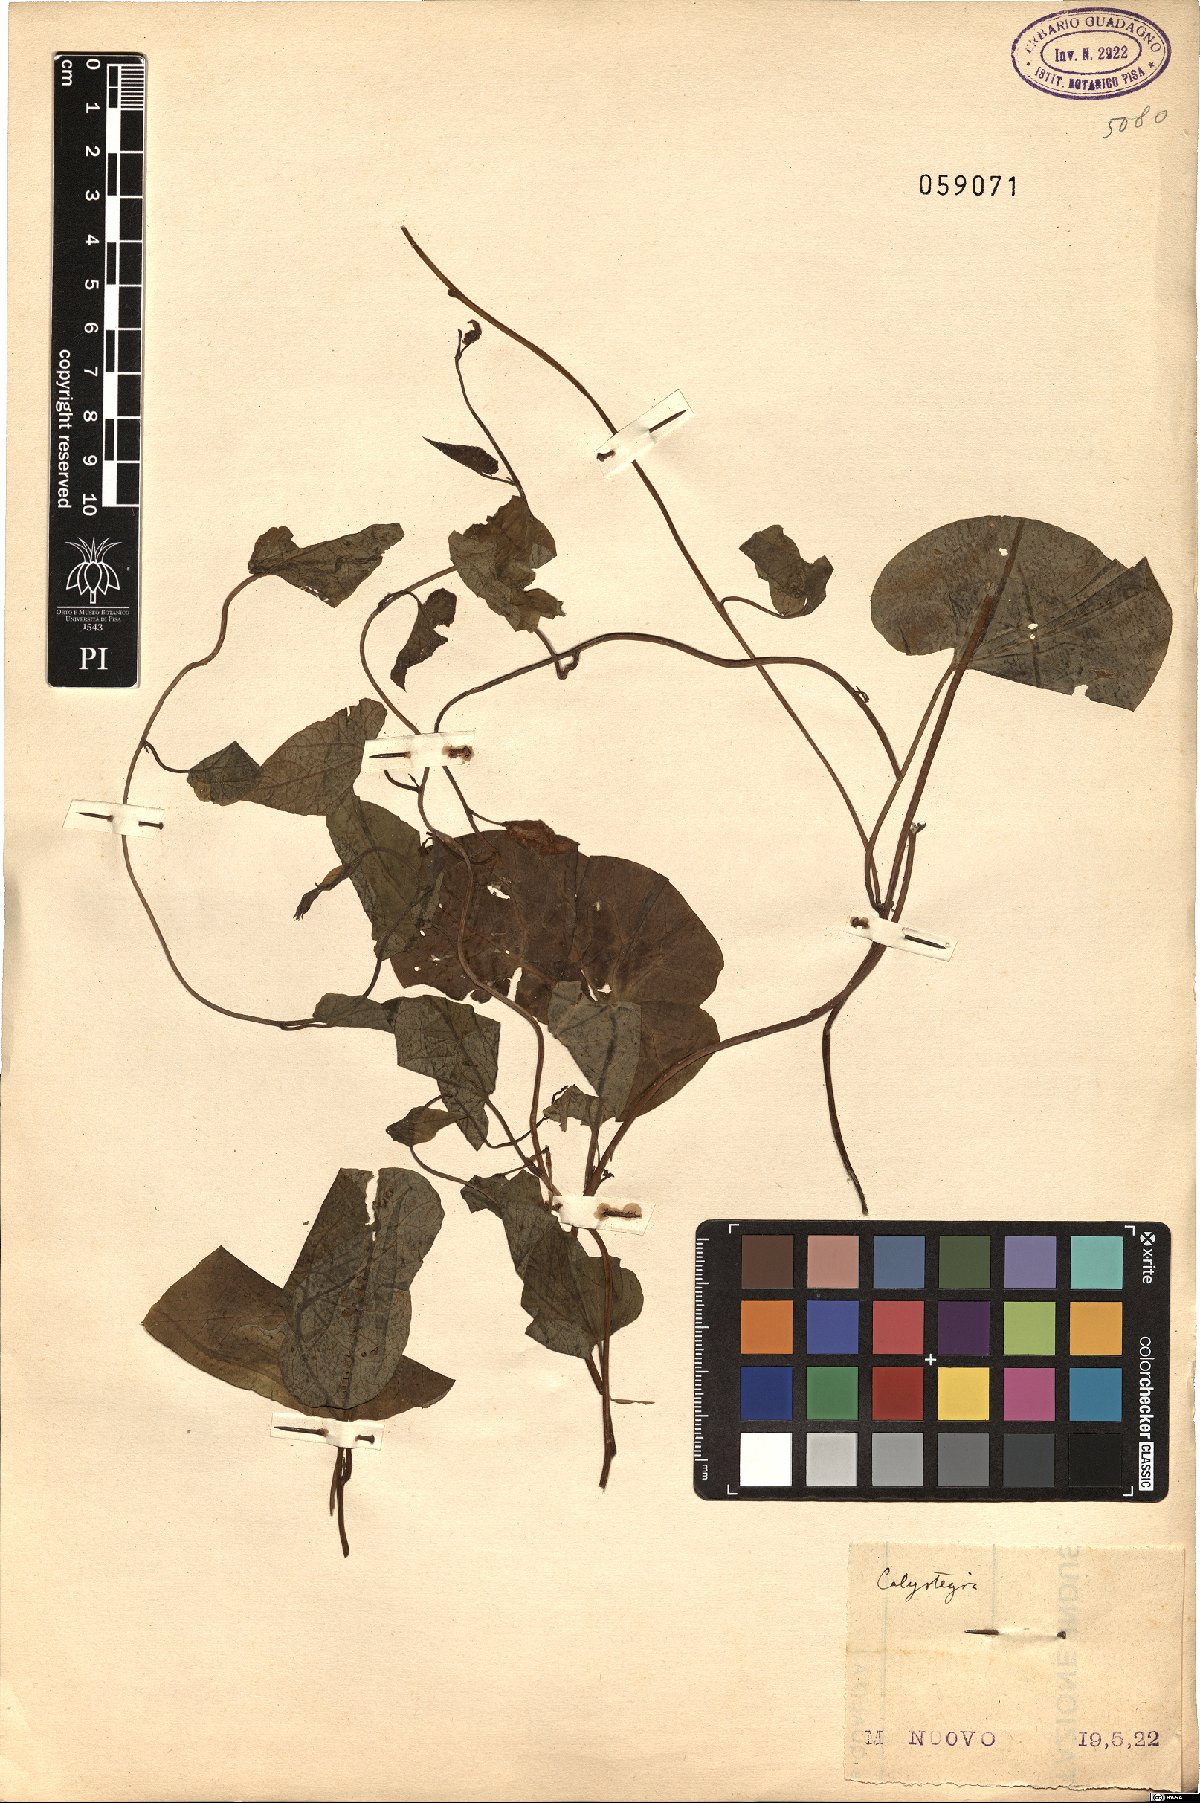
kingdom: Plantae
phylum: Tracheophyta
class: Magnoliopsida
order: Solanales
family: Convolvulaceae
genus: Calystegia
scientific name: Calystegia
